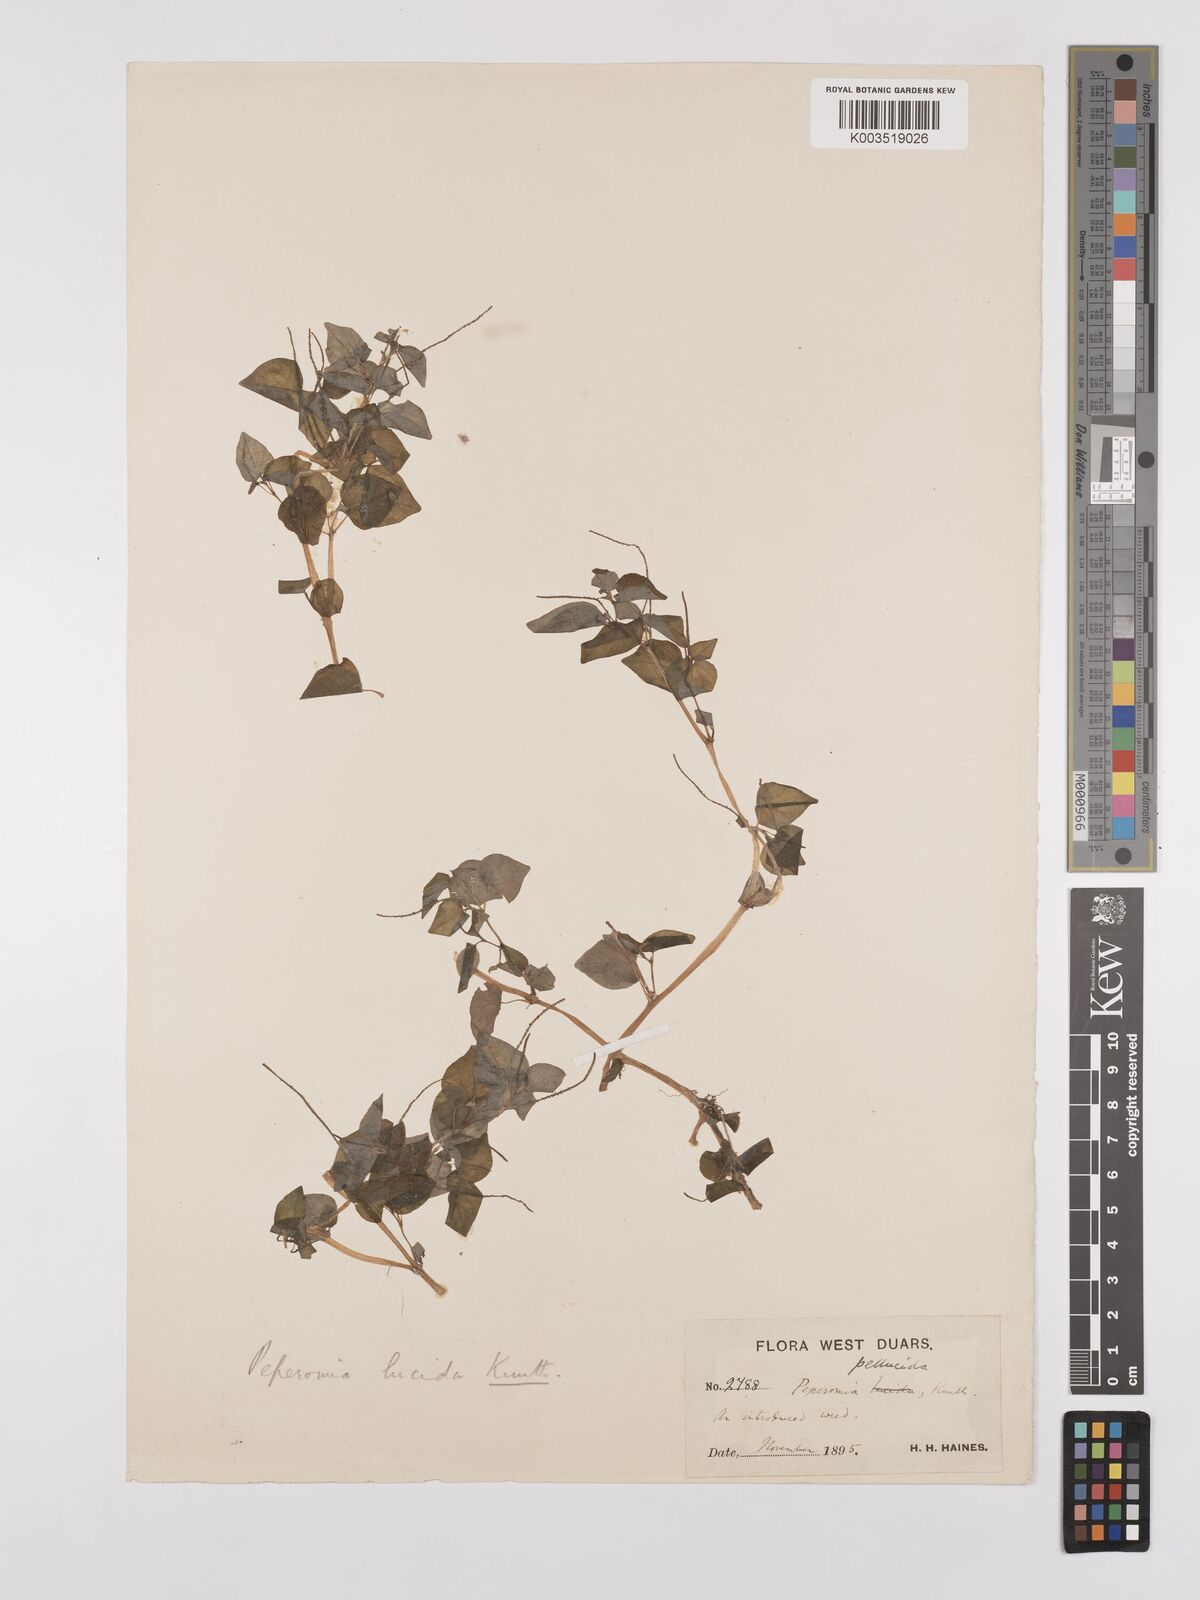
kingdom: Plantae
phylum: Tracheophyta
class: Magnoliopsida
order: Piperales
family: Piperaceae
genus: Peperomia
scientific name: Peperomia pellucida
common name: Man to man
